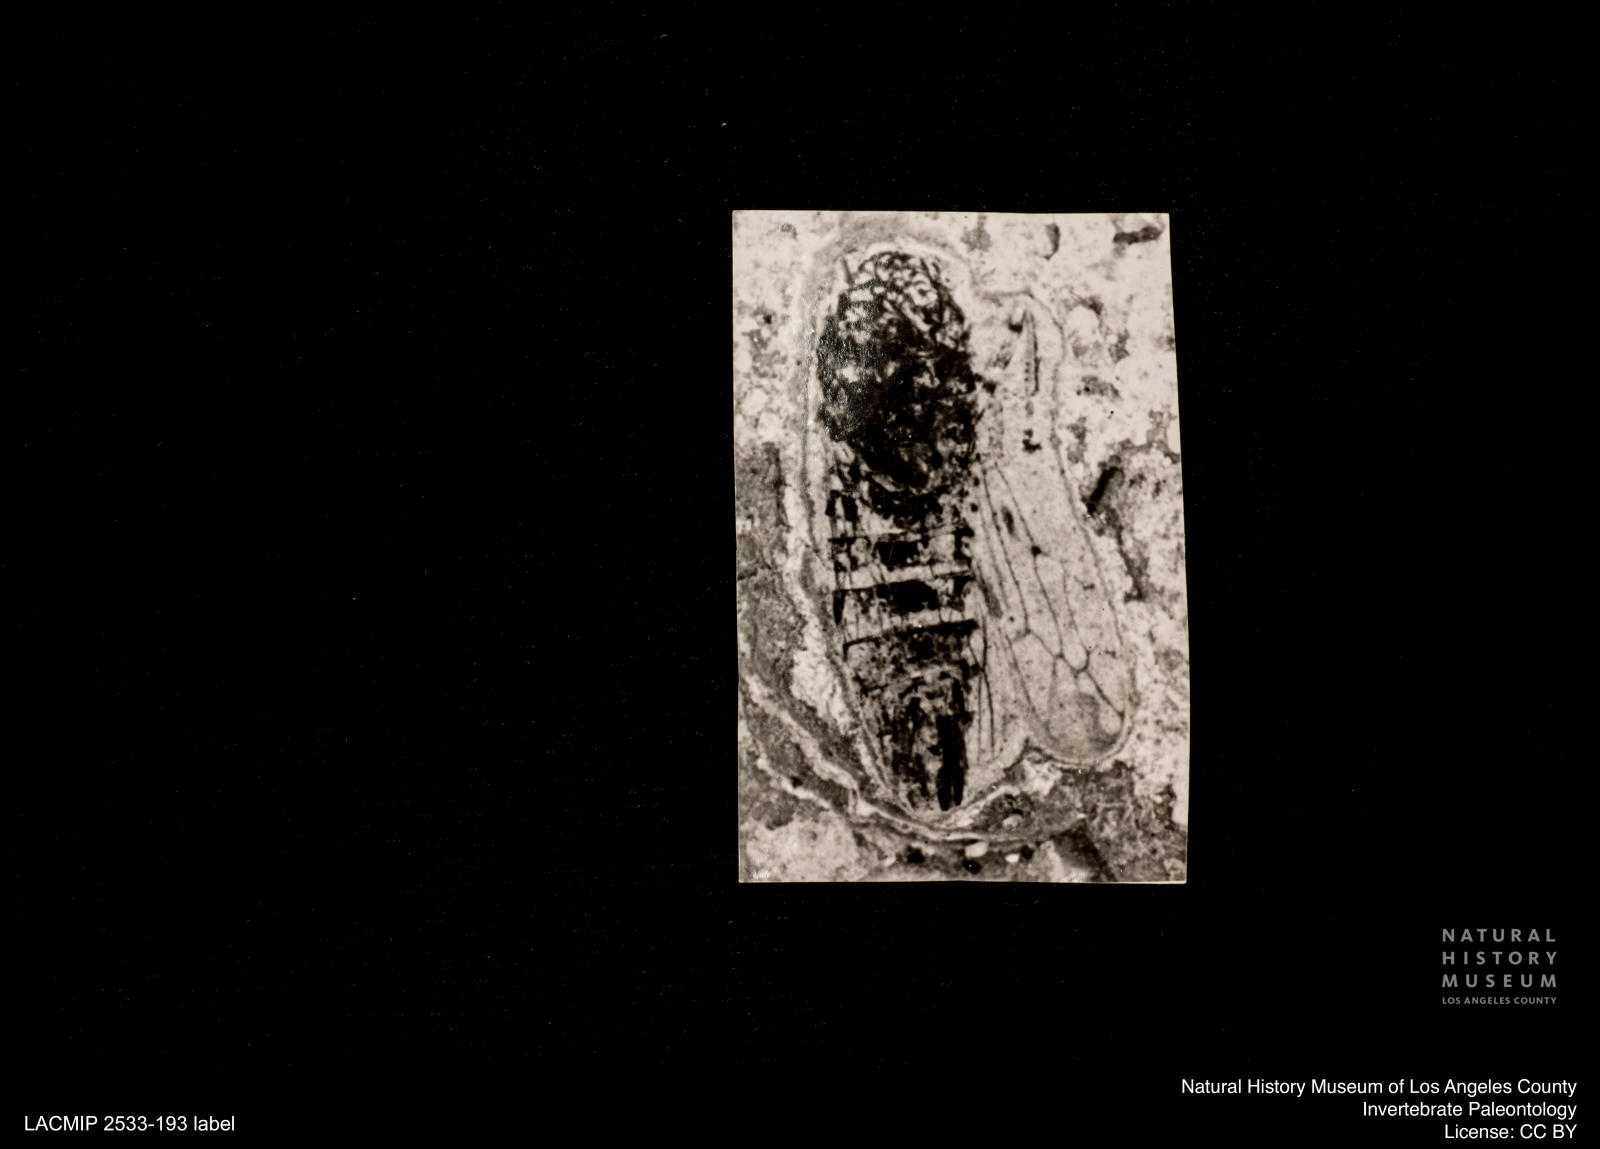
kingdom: Animalia
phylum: Arthropoda
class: Insecta
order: Hemiptera
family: Cicadellidae
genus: Thamnotettix
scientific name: Thamnotettix gracilentus
